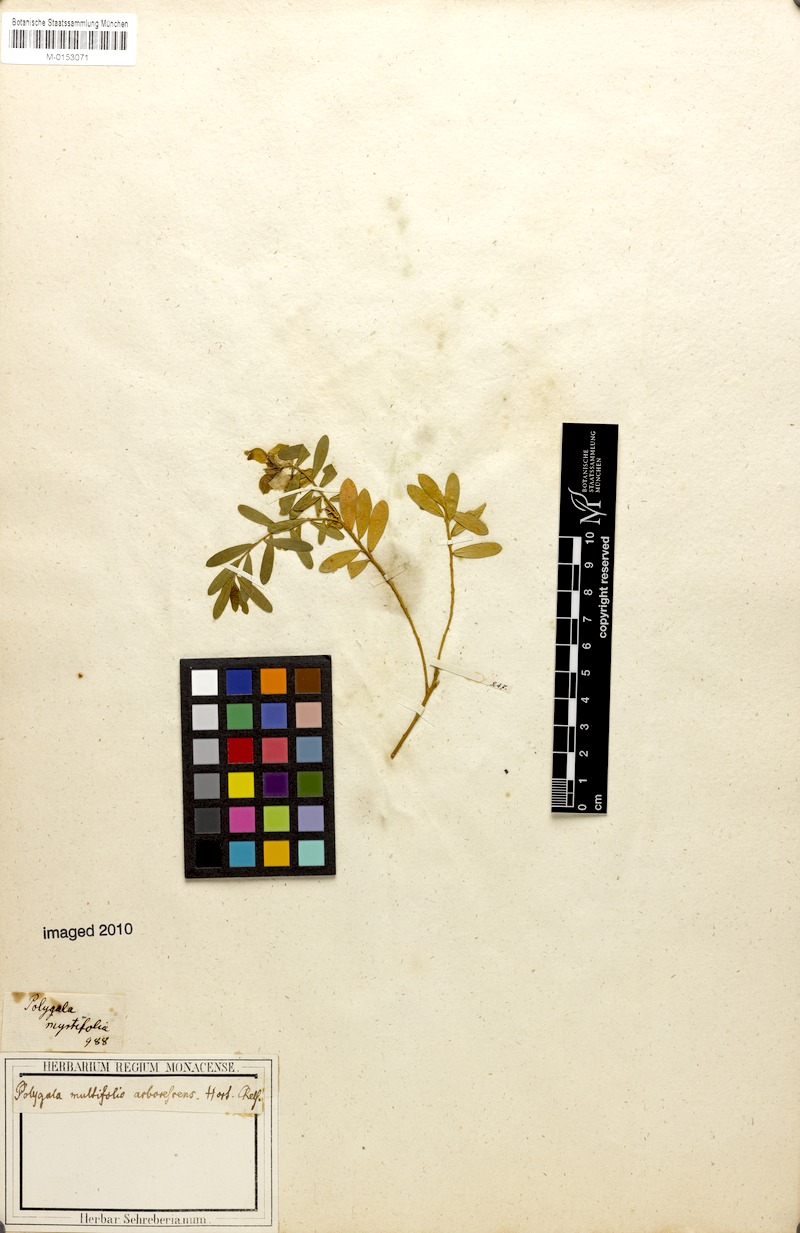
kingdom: Plantae
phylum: Tracheophyta
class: Magnoliopsida
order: Fabales
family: Polygalaceae
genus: Polygala
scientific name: Polygala myrtifolia
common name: Myrtle-leaf milkwort
